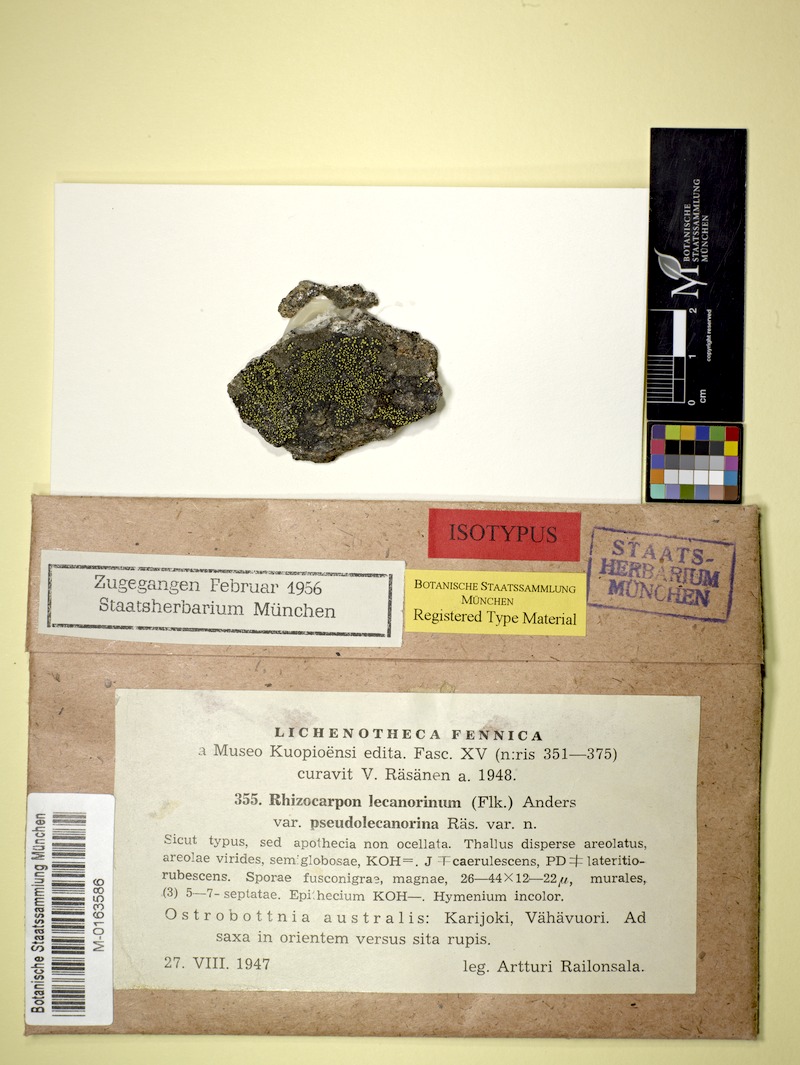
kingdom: Fungi
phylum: Ascomycota
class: Lecanoromycetes
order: Rhizocarpales
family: Rhizocarpaceae
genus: Rhizocarpon
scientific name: Rhizocarpon macrosporum
